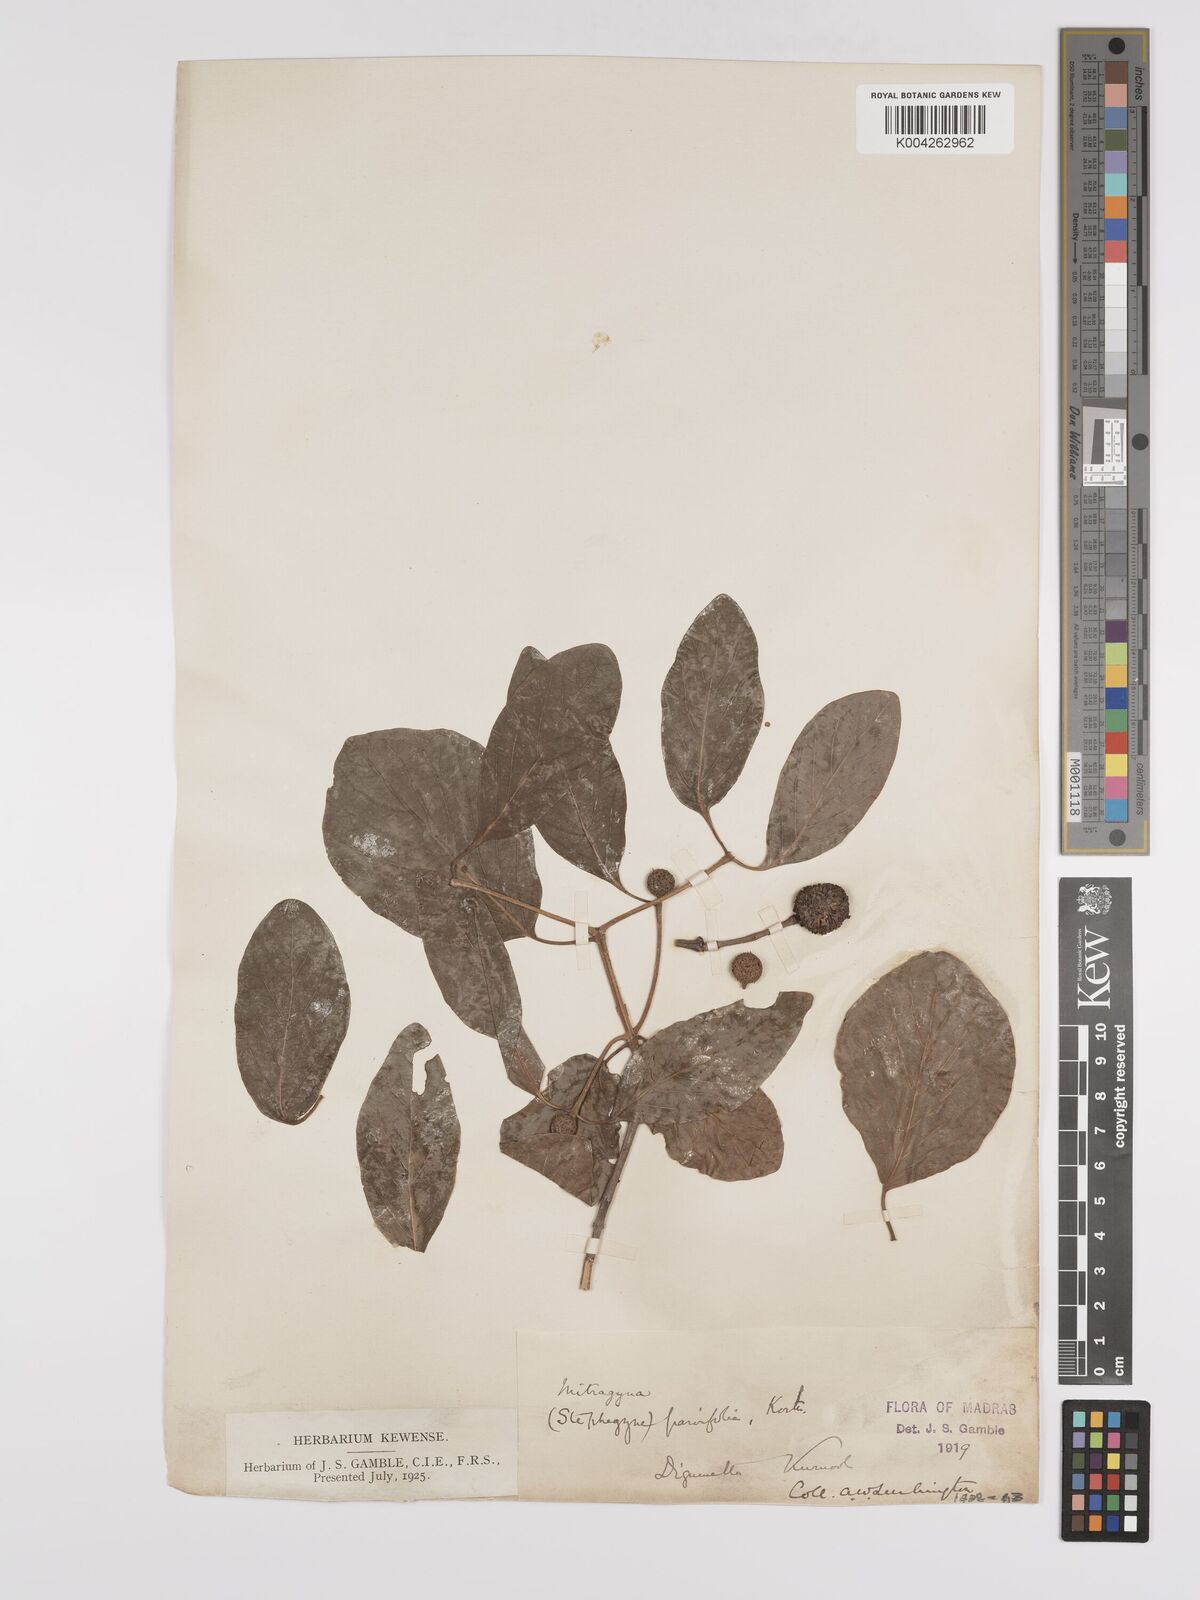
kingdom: Plantae
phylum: Tracheophyta
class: Magnoliopsida
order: Gentianales
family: Rubiaceae
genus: Mitragyna
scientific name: Mitragyna parvifolia
